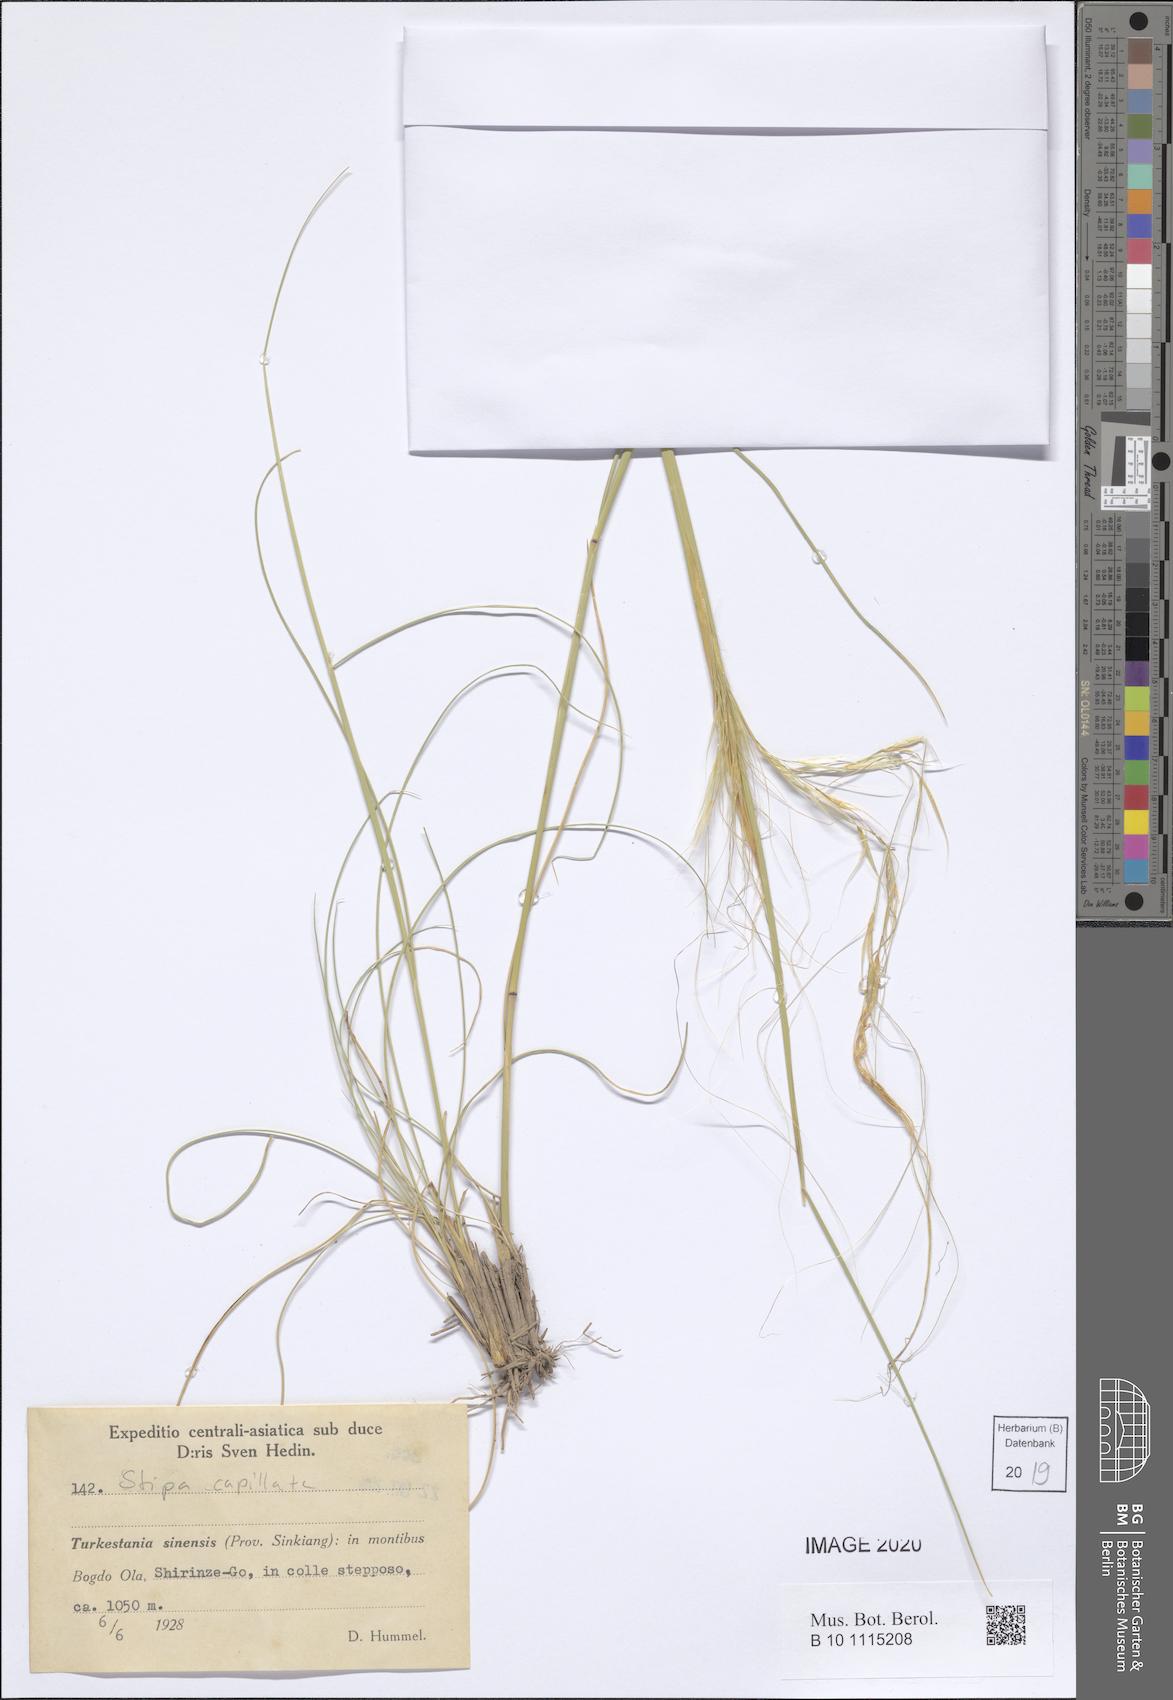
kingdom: Plantae
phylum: Tracheophyta
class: Liliopsida
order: Poales
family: Poaceae
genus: Stipa
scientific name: Stipa capillata
